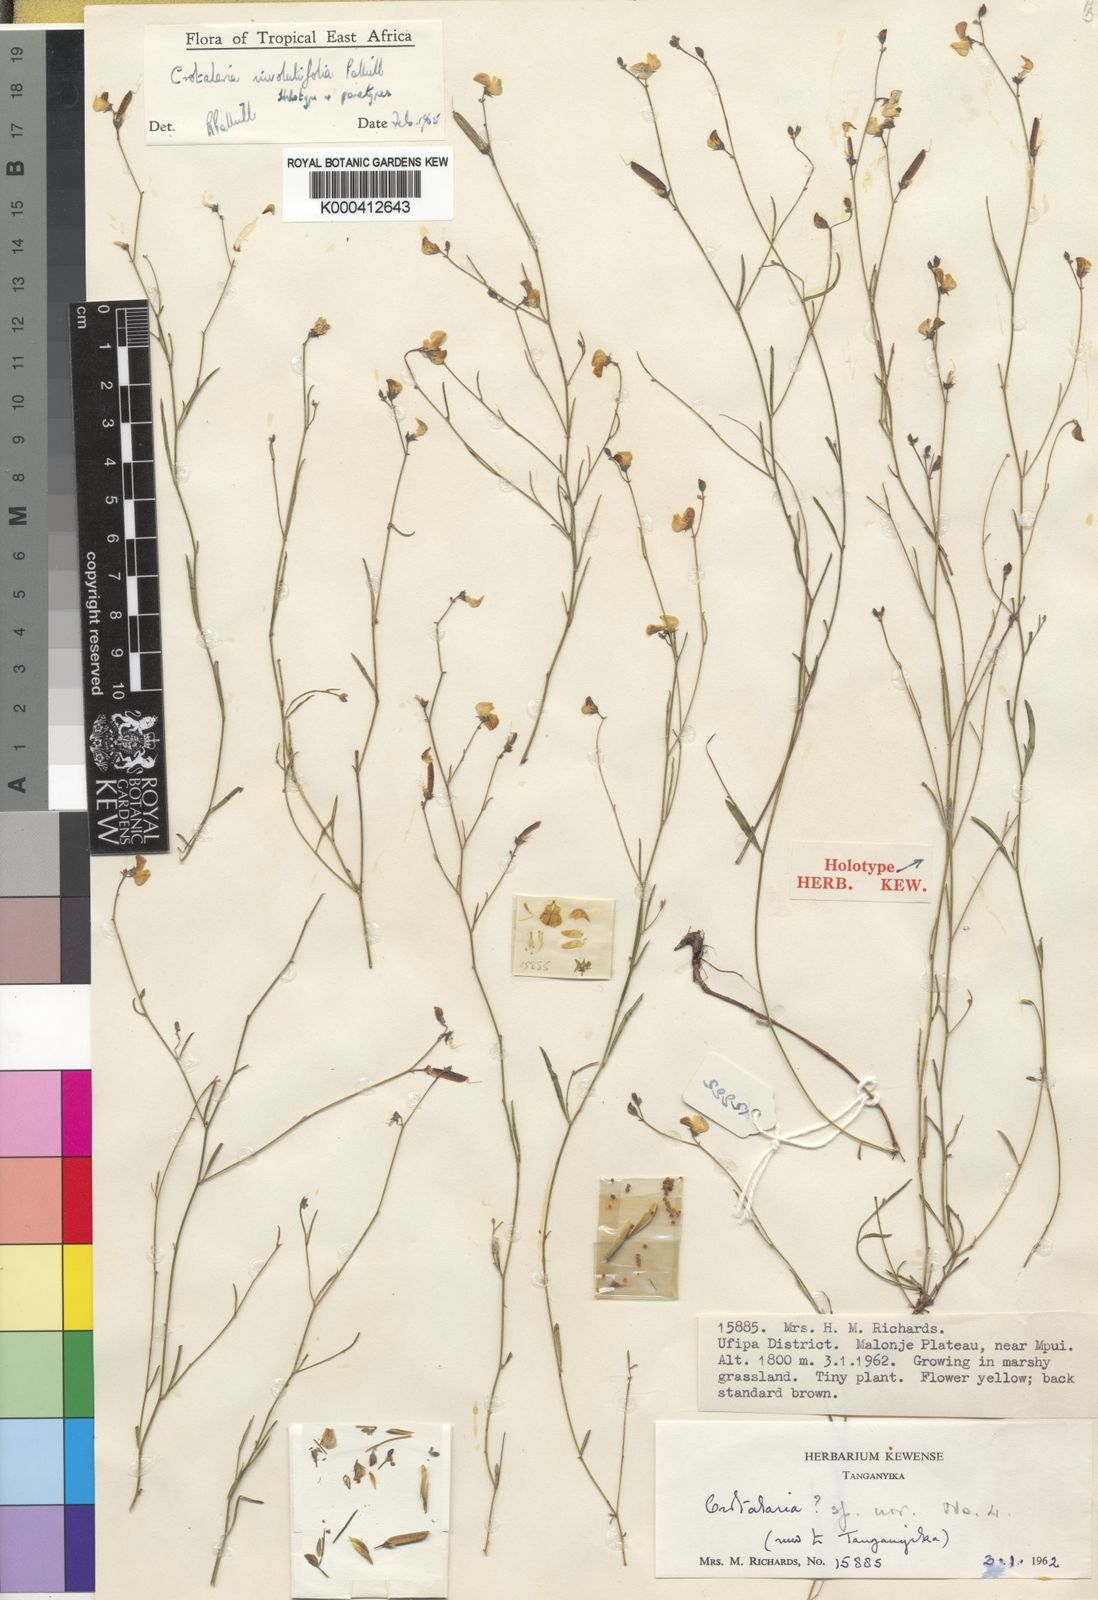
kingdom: Plantae
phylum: Tracheophyta
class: Magnoliopsida
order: Fabales
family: Fabaceae
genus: Crotalaria
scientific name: Crotalaria involutifolia
